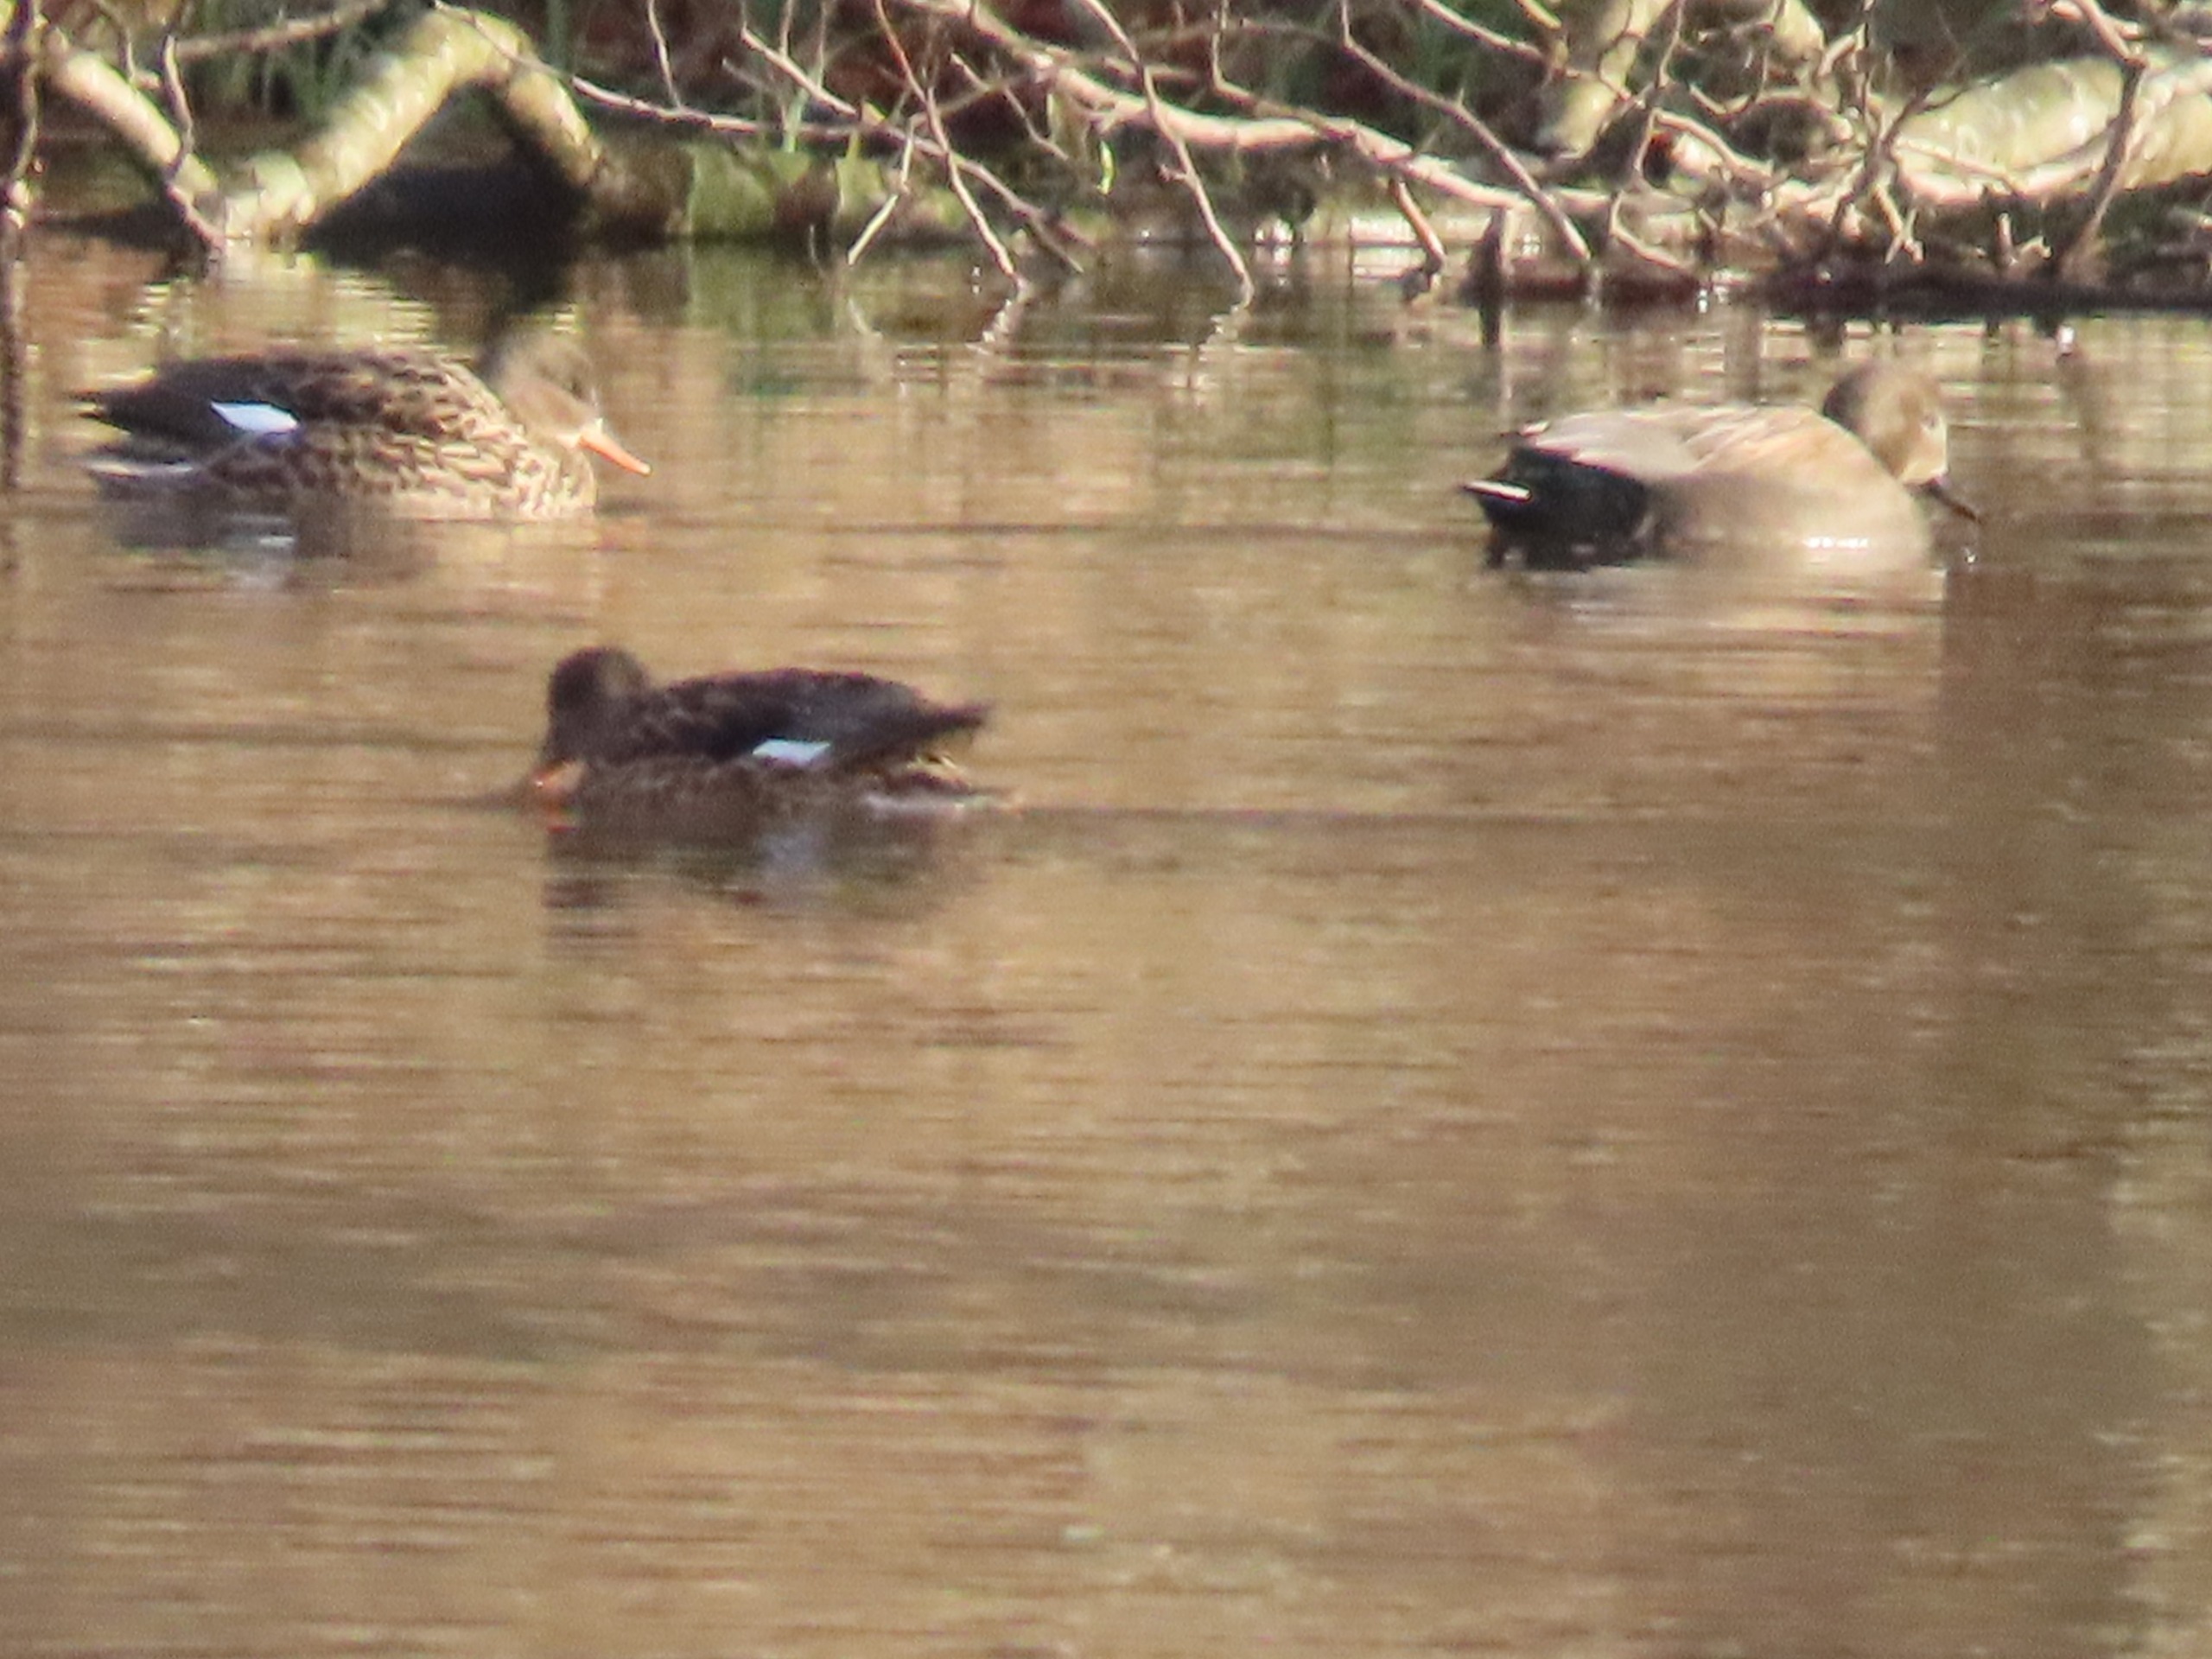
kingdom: Animalia
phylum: Chordata
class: Aves
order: Anseriformes
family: Anatidae
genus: Mareca
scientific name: Mareca strepera
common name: Knarand
